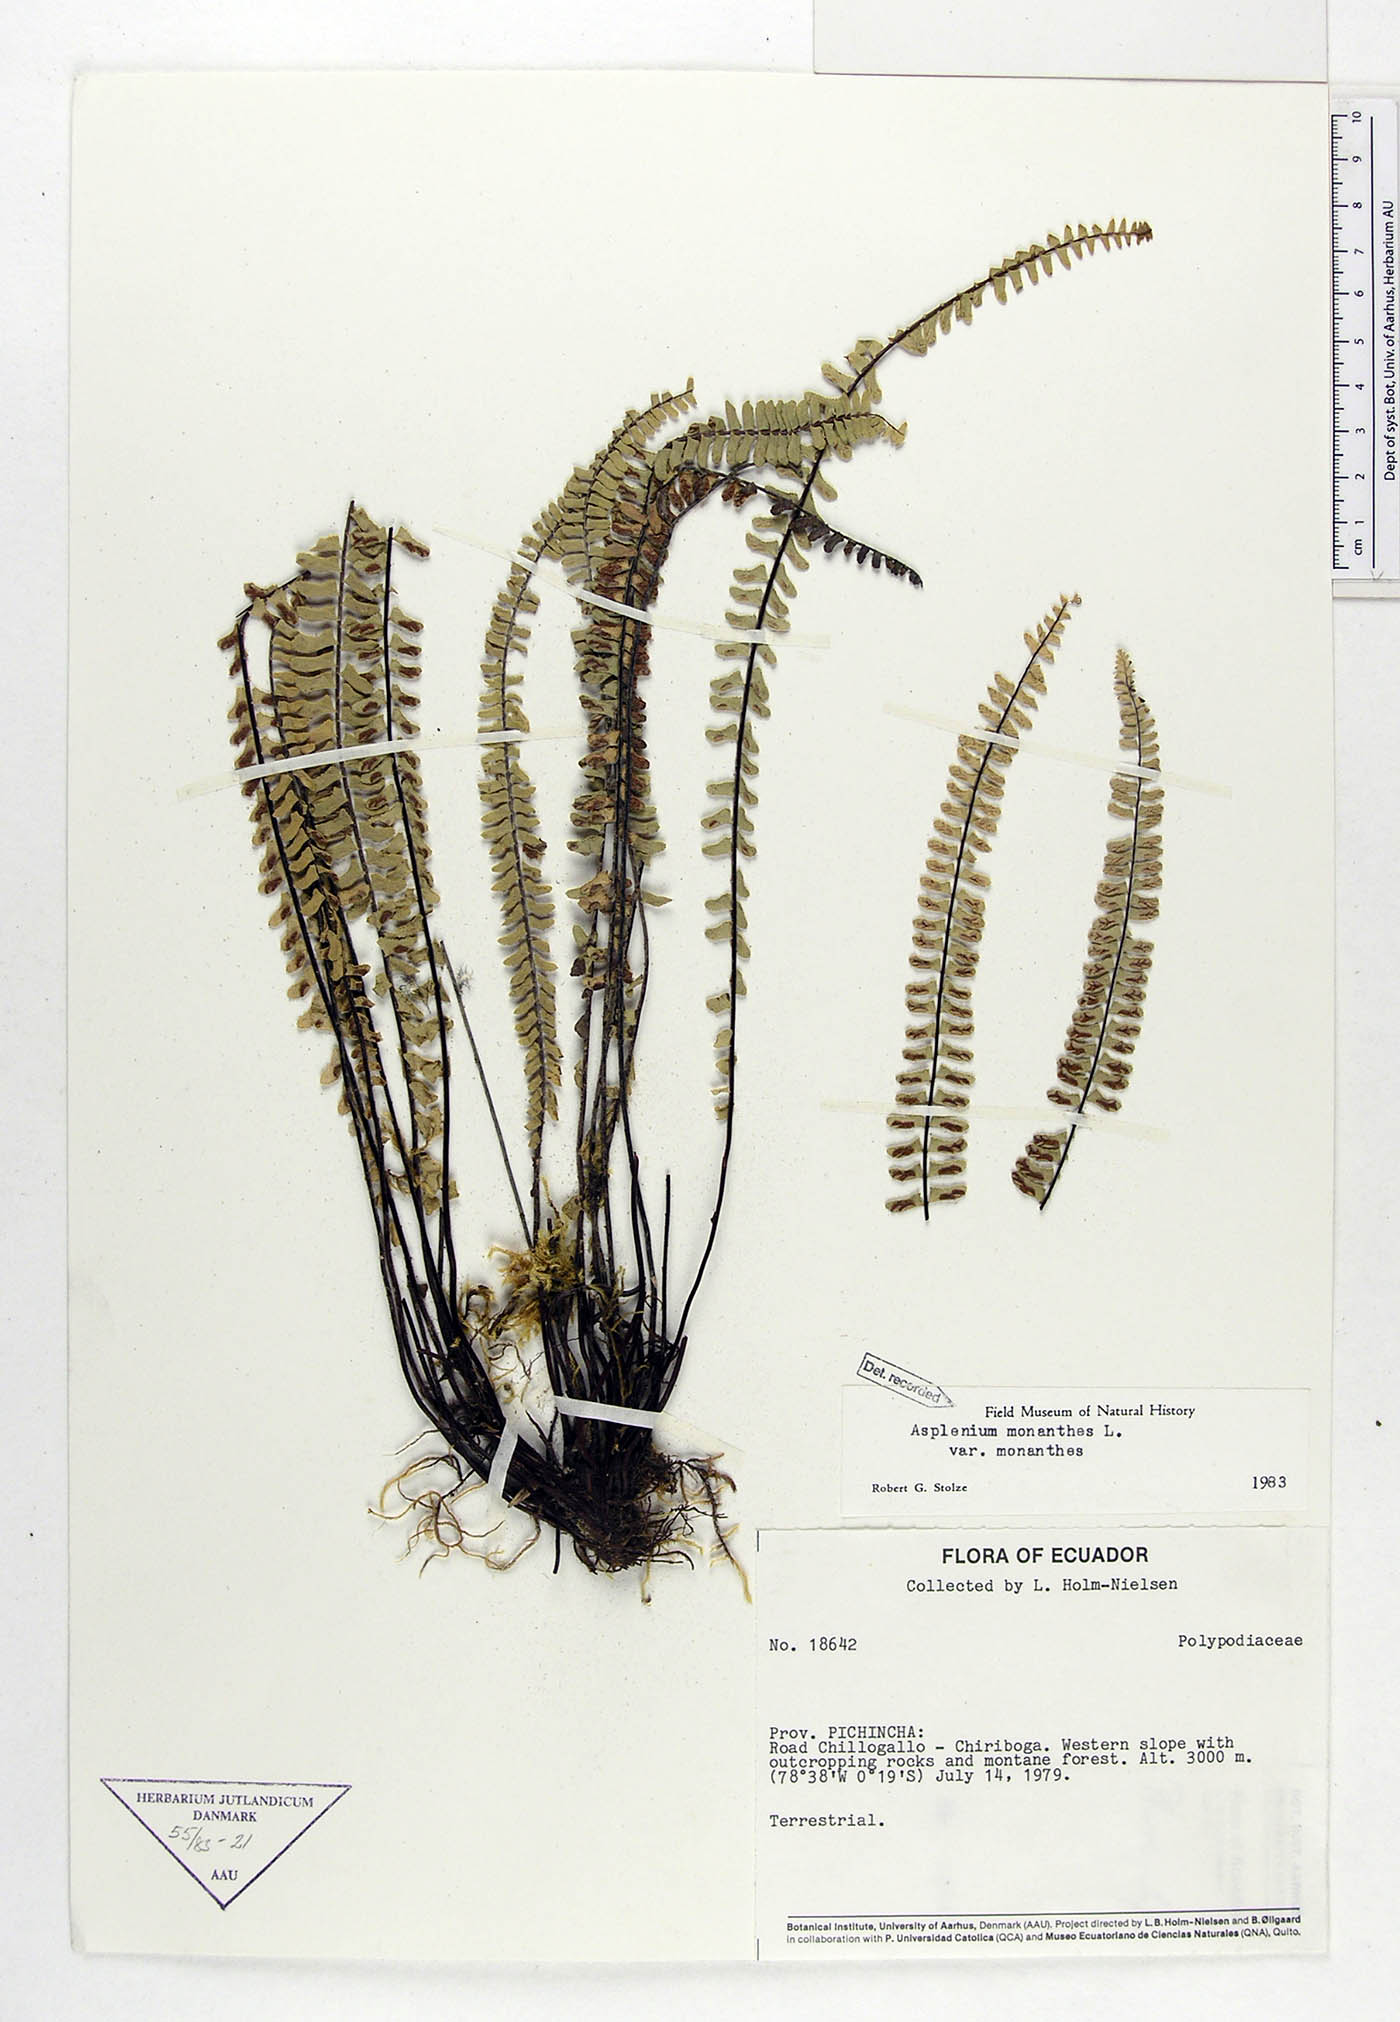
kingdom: Plantae
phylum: Tracheophyta
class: Polypodiopsida
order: Polypodiales
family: Aspleniaceae
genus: Asplenium
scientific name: Asplenium monanthes
